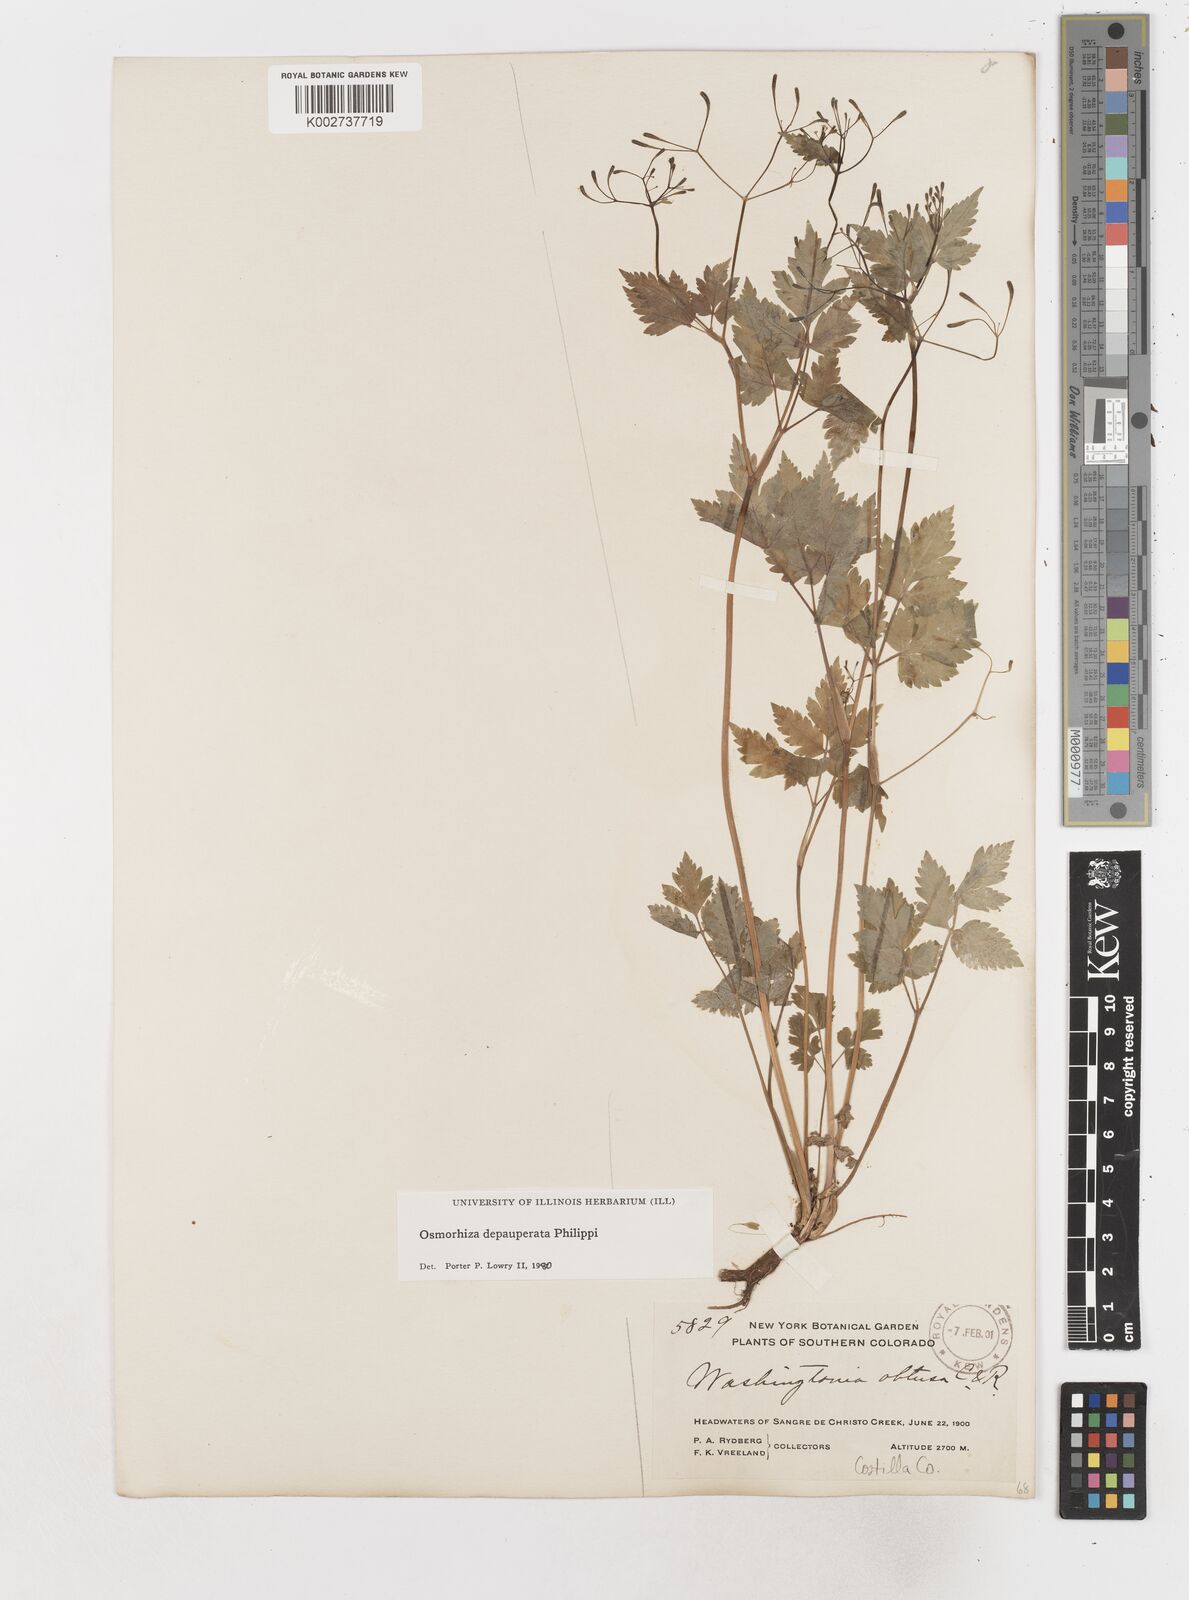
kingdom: Plantae
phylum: Tracheophyta
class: Magnoliopsida
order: Apiales
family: Apiaceae
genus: Osmorhiza
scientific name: Osmorhiza depauperata
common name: Blunt sweet cicely
